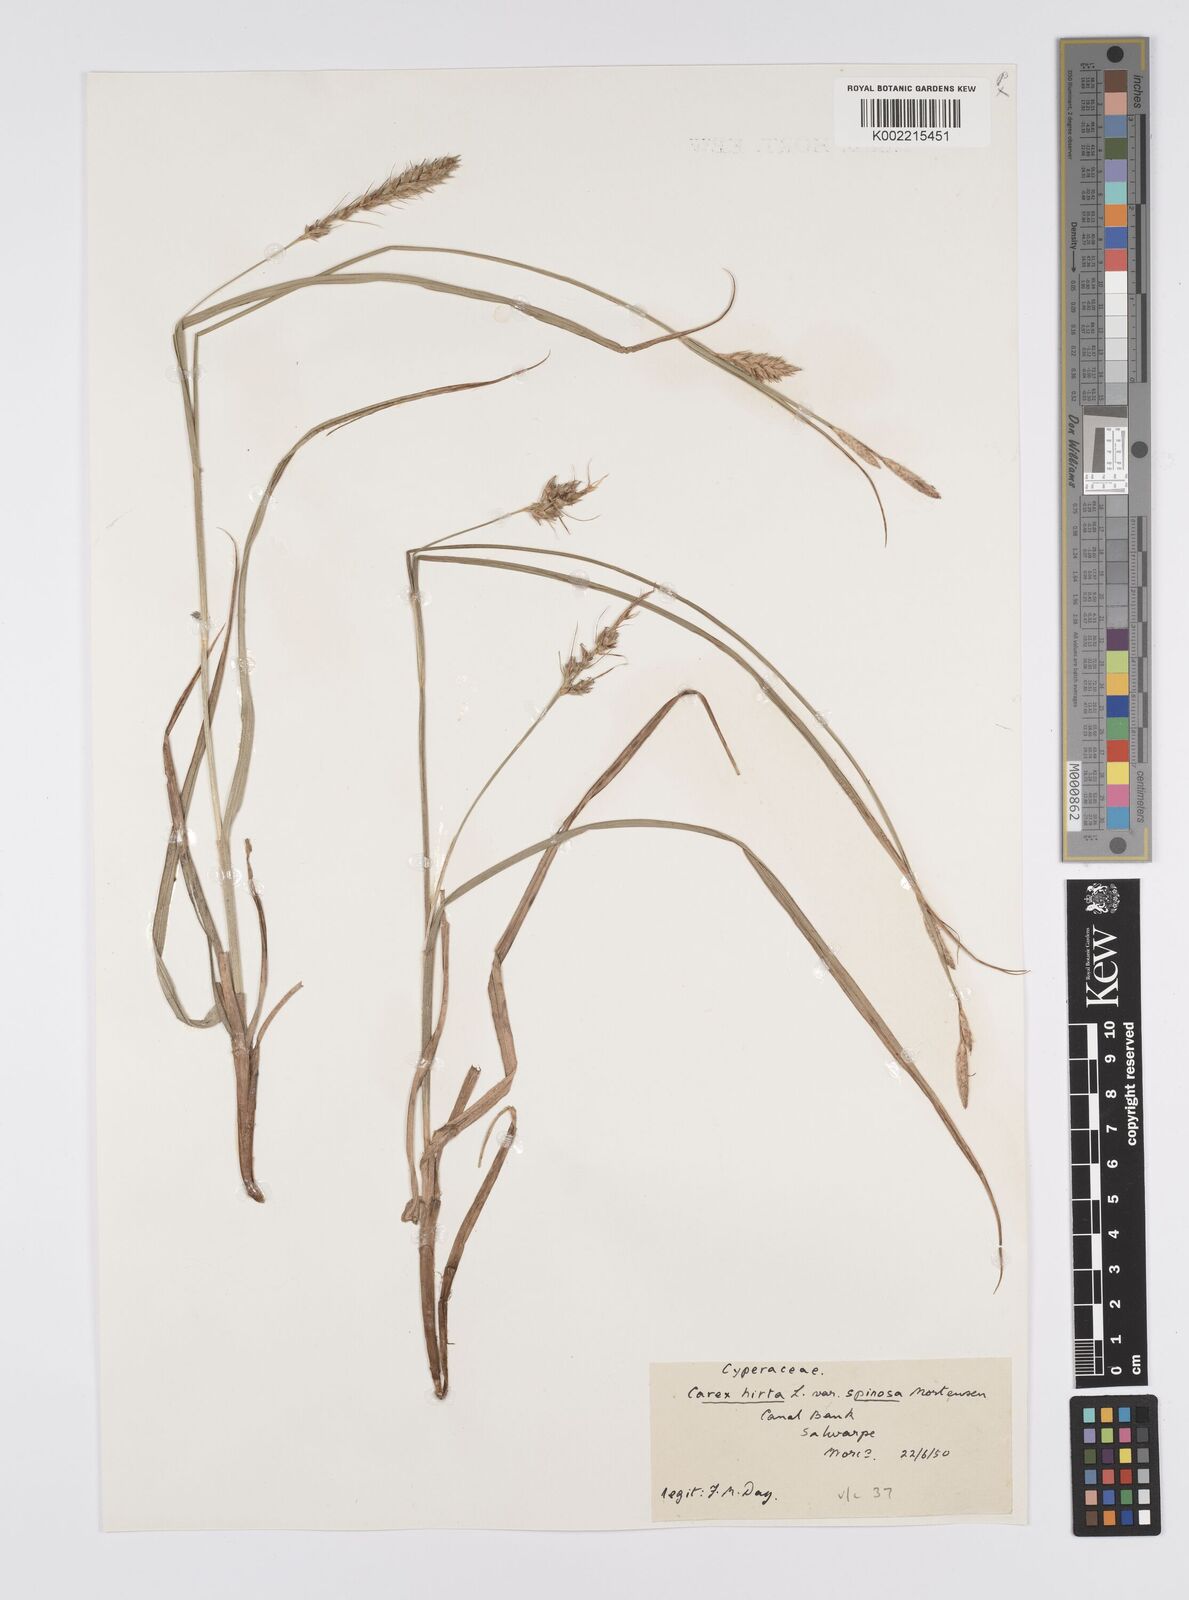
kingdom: Plantae
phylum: Tracheophyta
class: Liliopsida
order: Poales
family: Cyperaceae
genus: Carex
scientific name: Carex hirta
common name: Hairy sedge
